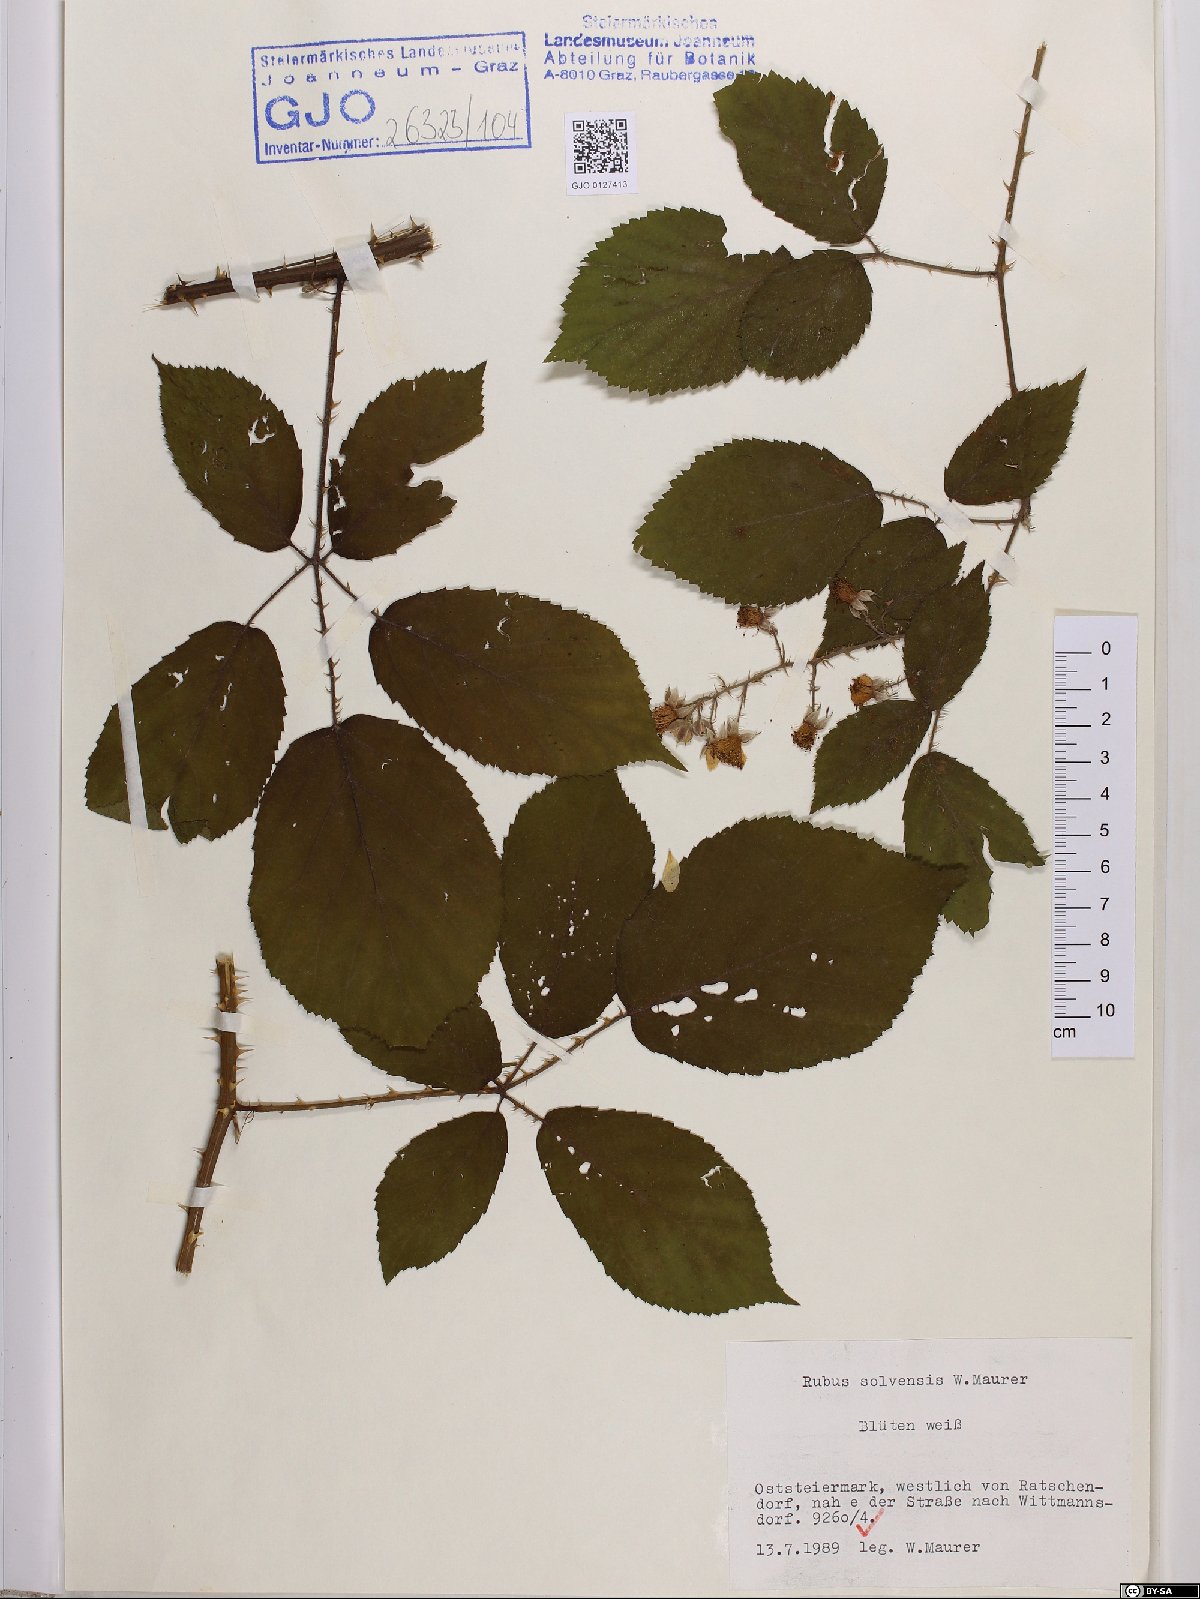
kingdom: Plantae
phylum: Tracheophyta
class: Magnoliopsida
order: Rosales
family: Rosaceae
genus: Rubus
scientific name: Rubus solvensis
